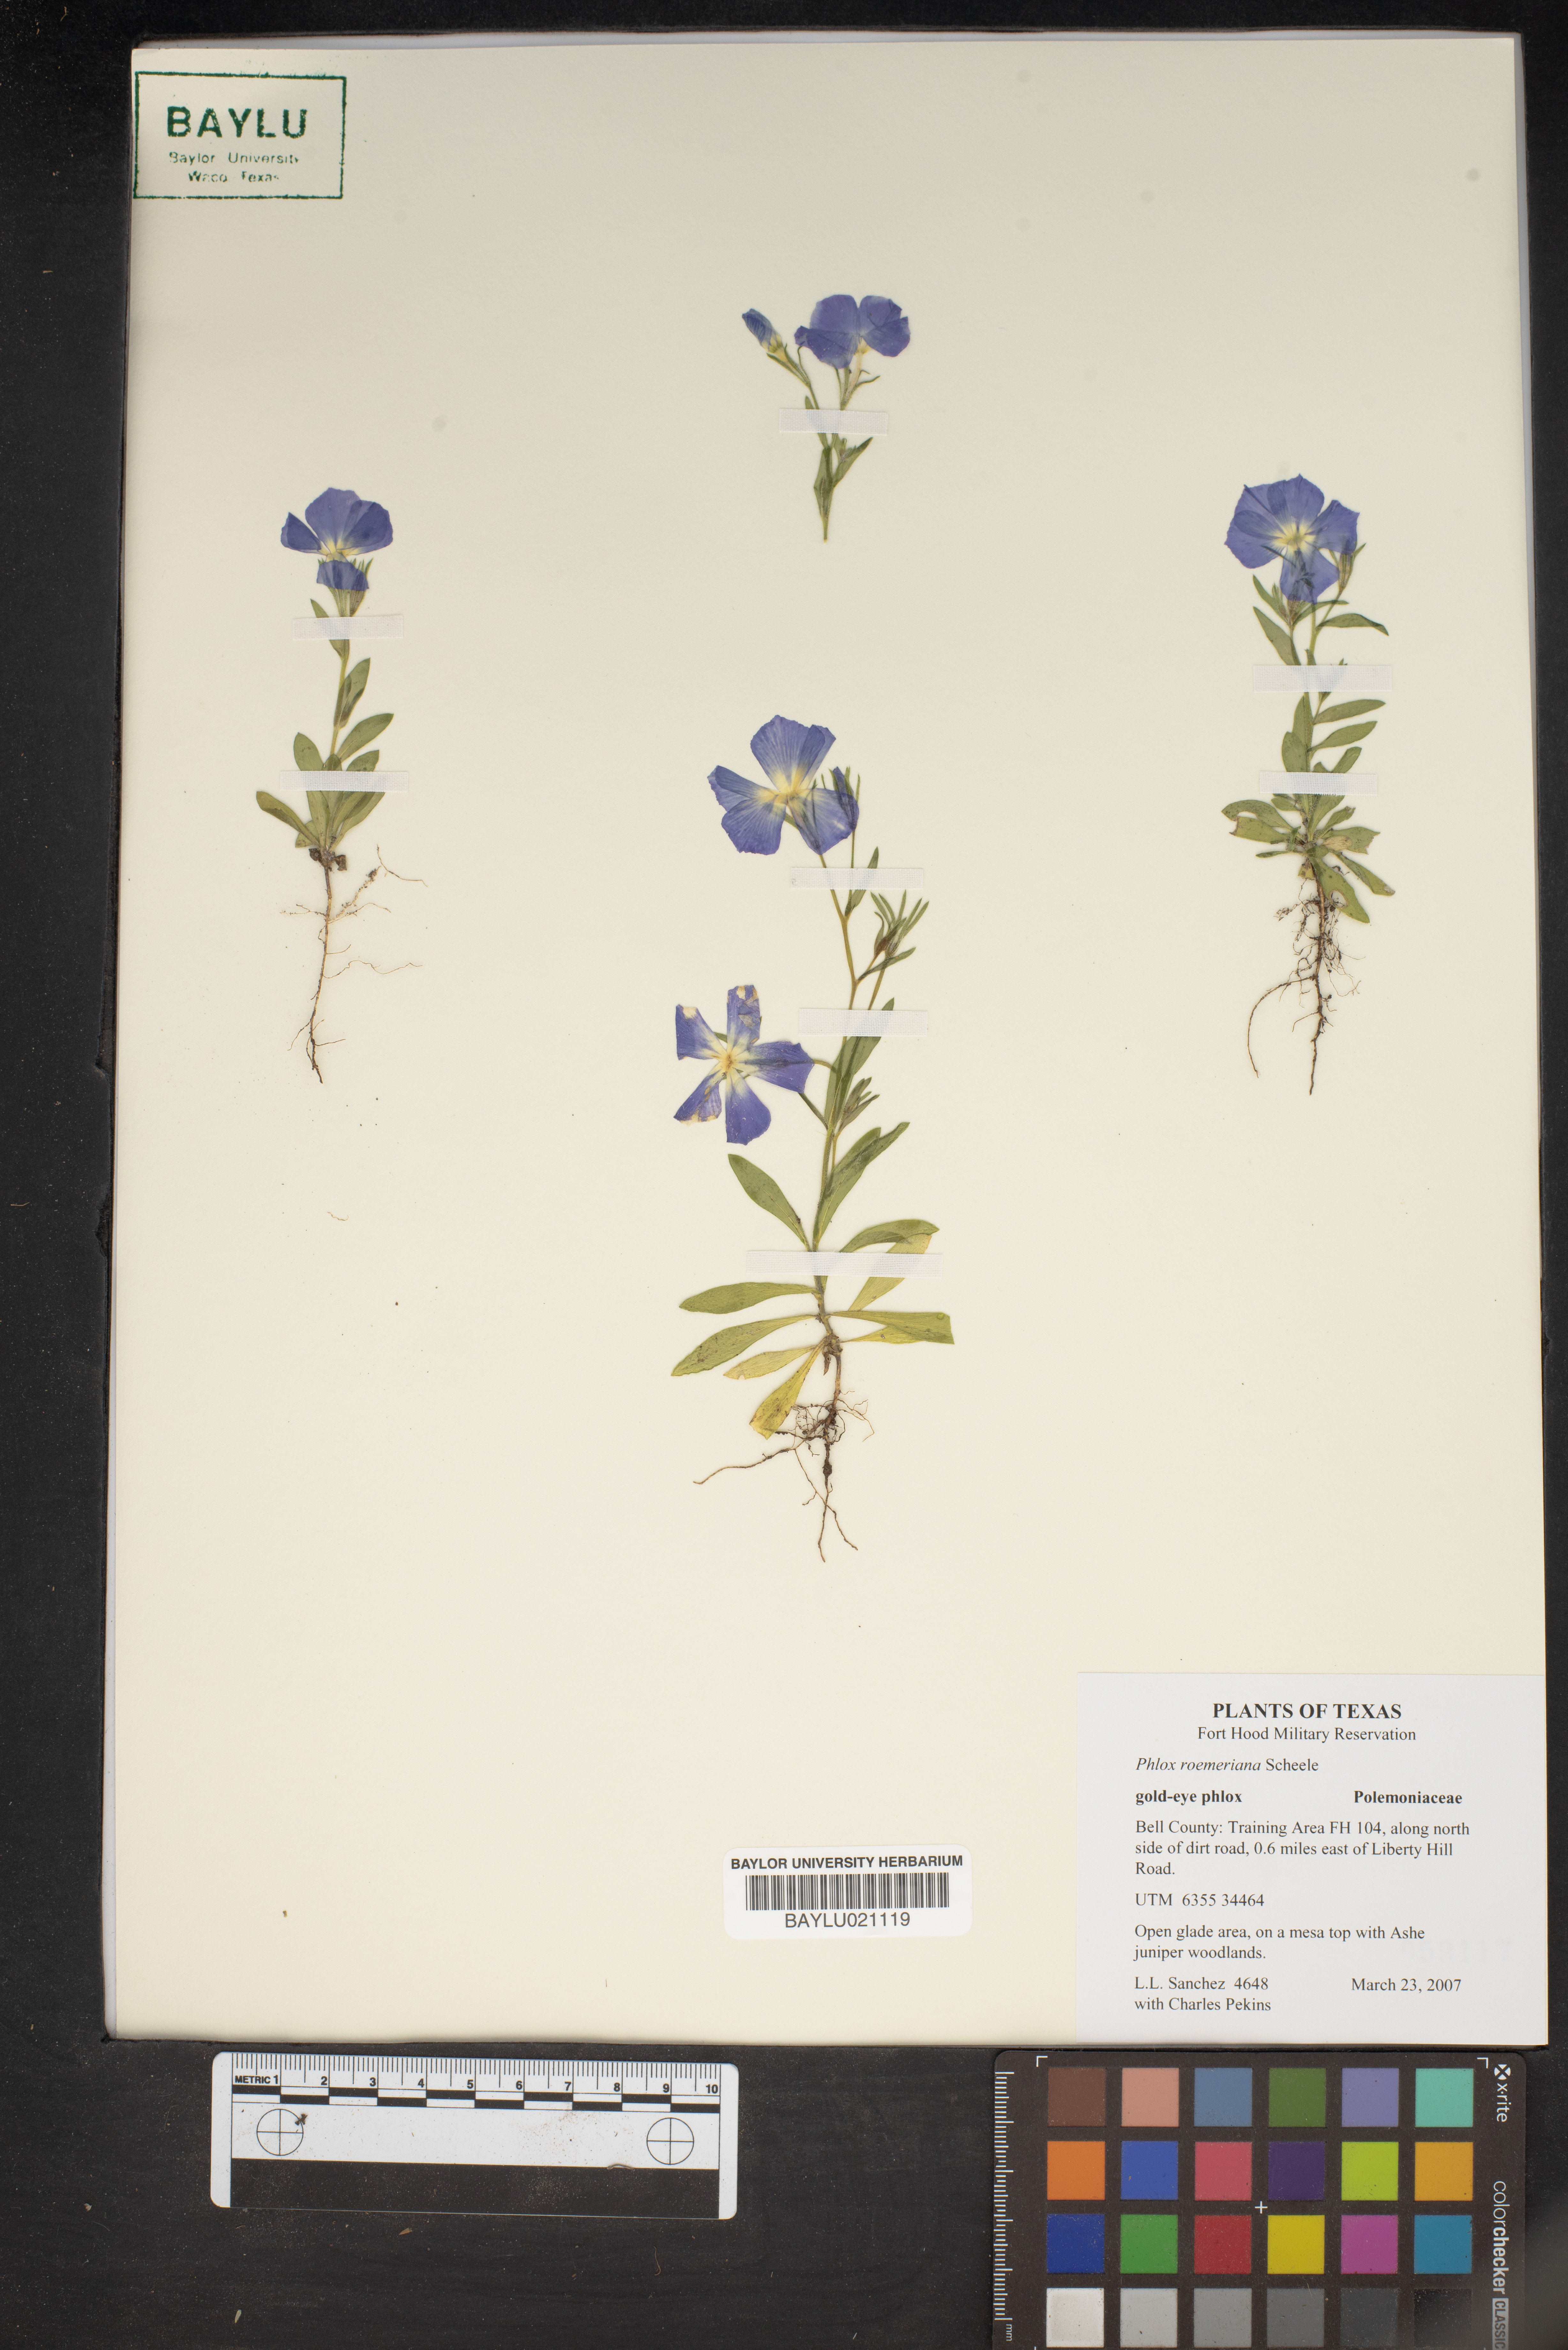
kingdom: Plantae
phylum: Tracheophyta
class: Magnoliopsida
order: Ericales
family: Polemoniaceae
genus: Phlox
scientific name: Phlox roemeriana
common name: Roemer's phlox
